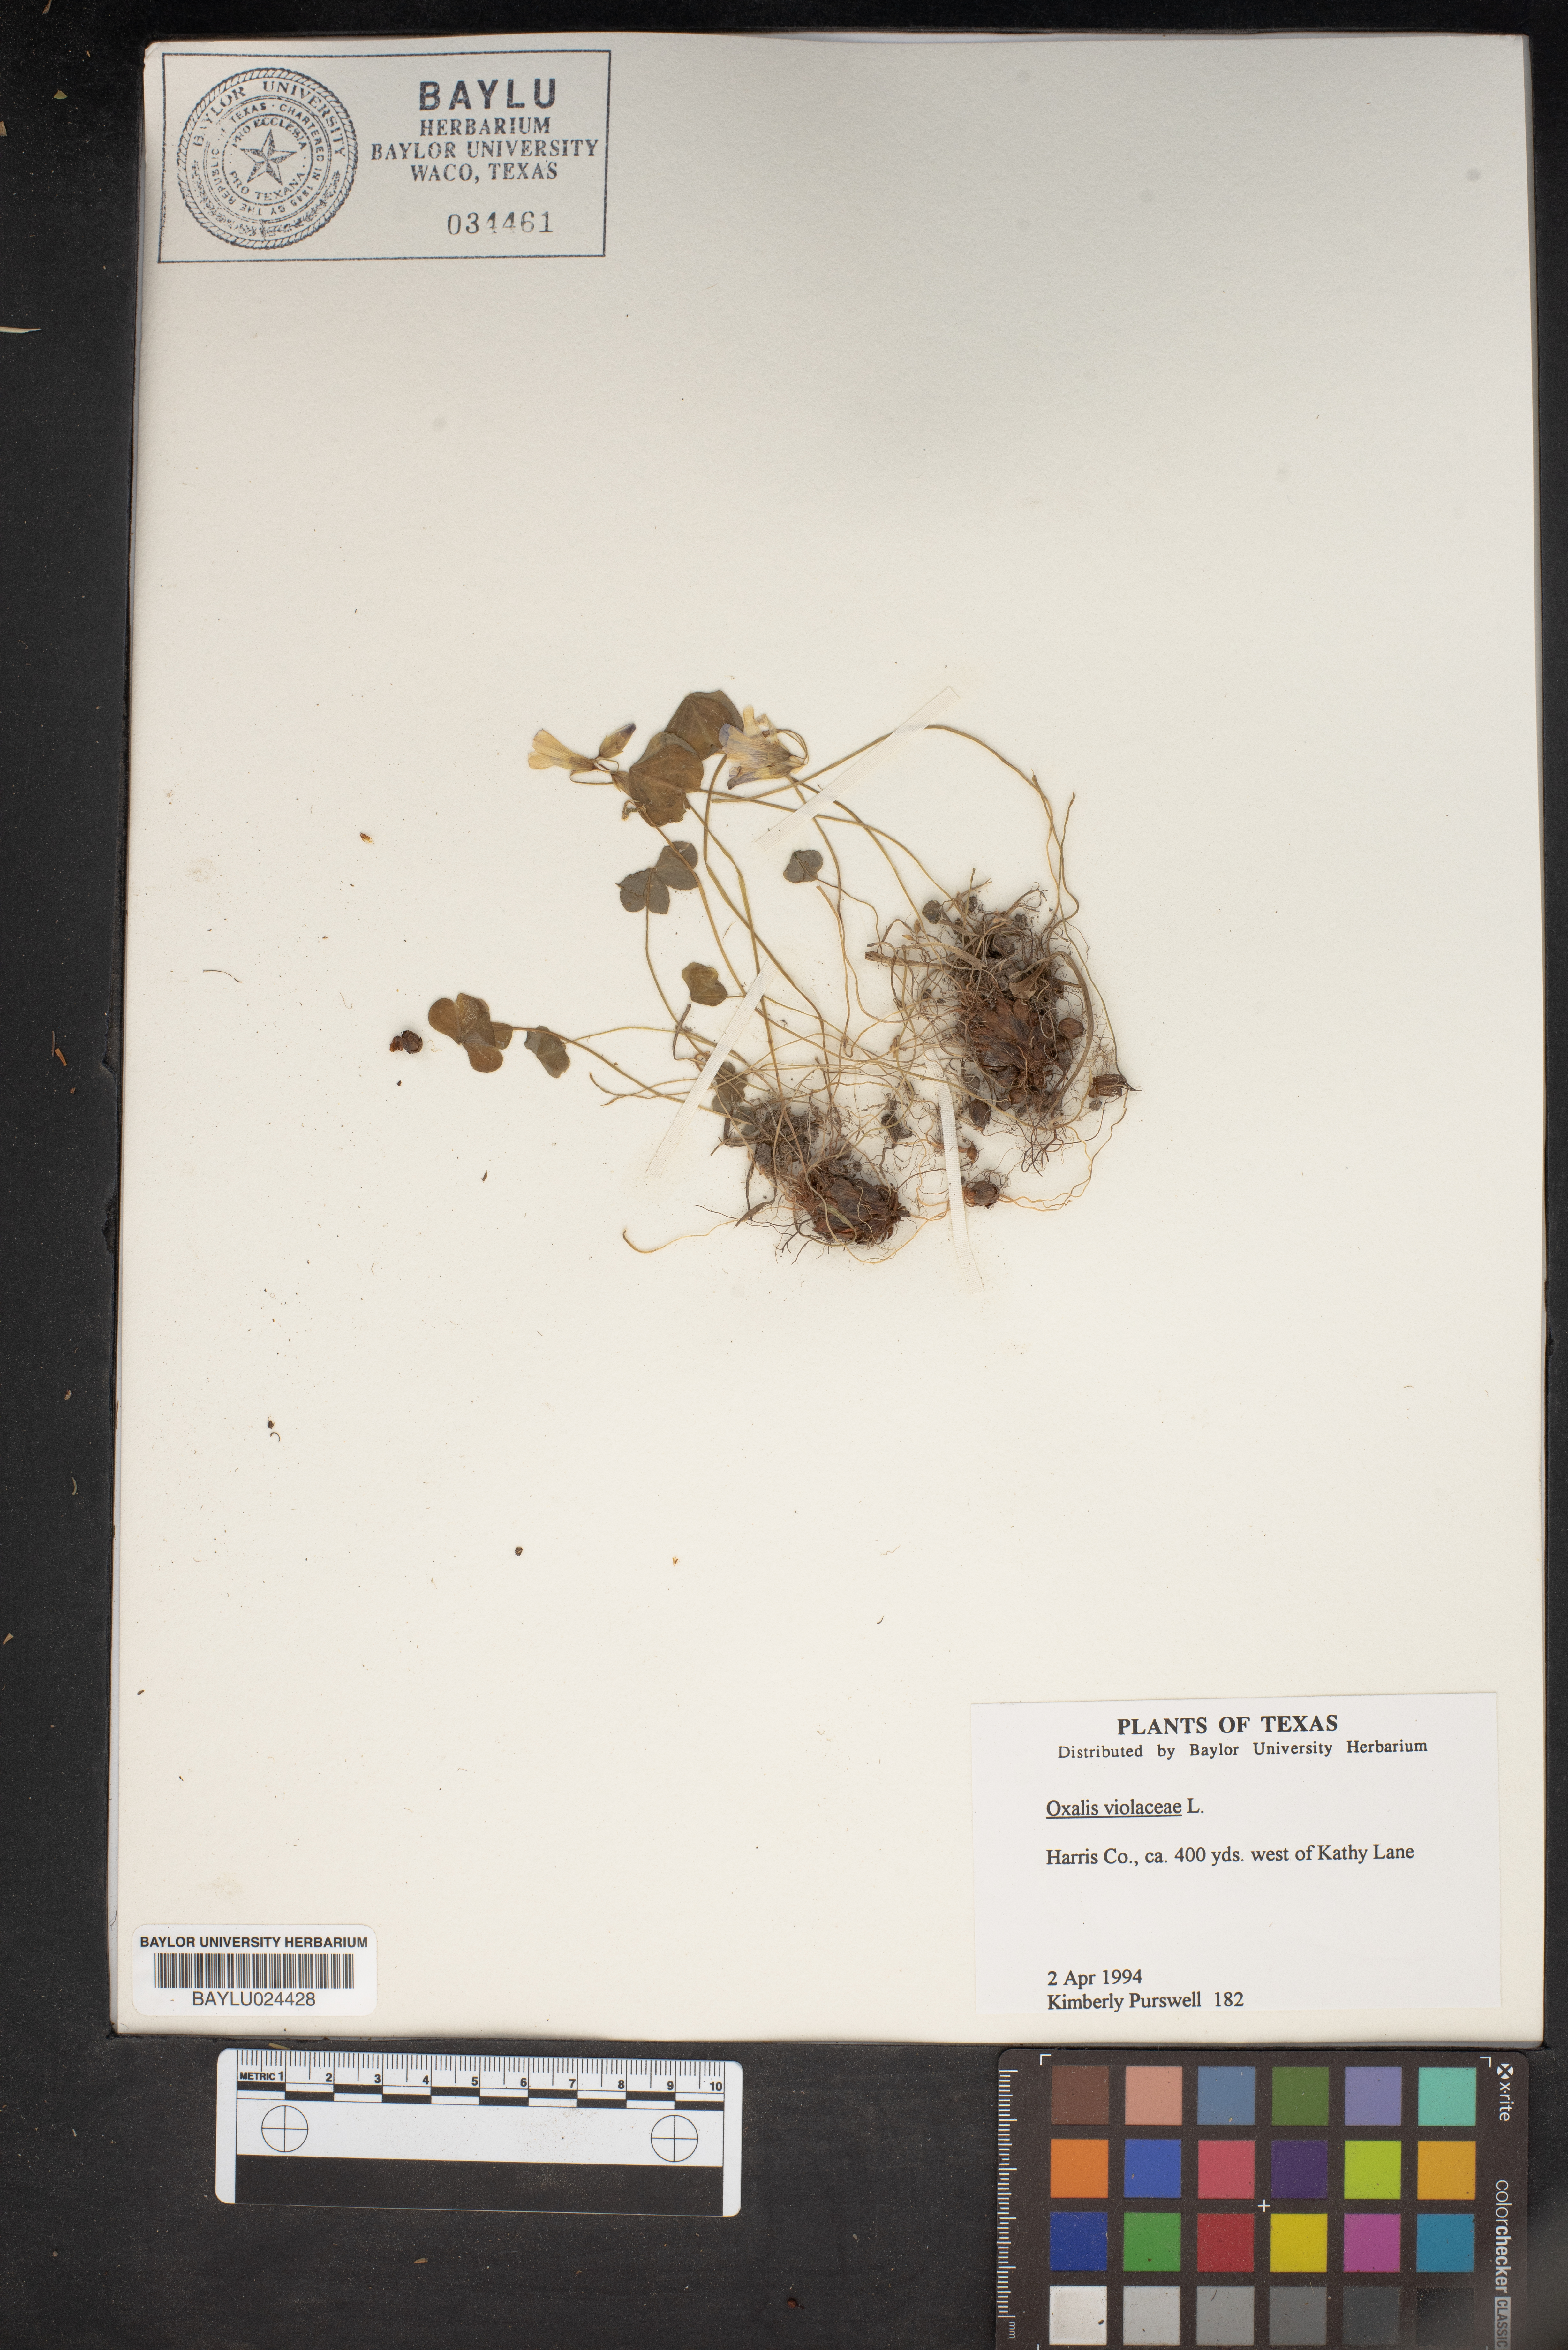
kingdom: Plantae
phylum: Tracheophyta
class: Magnoliopsida
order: Oxalidales
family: Oxalidaceae
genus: Oxalis
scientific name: Oxalis violacea
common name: Violet wood-sorrel
